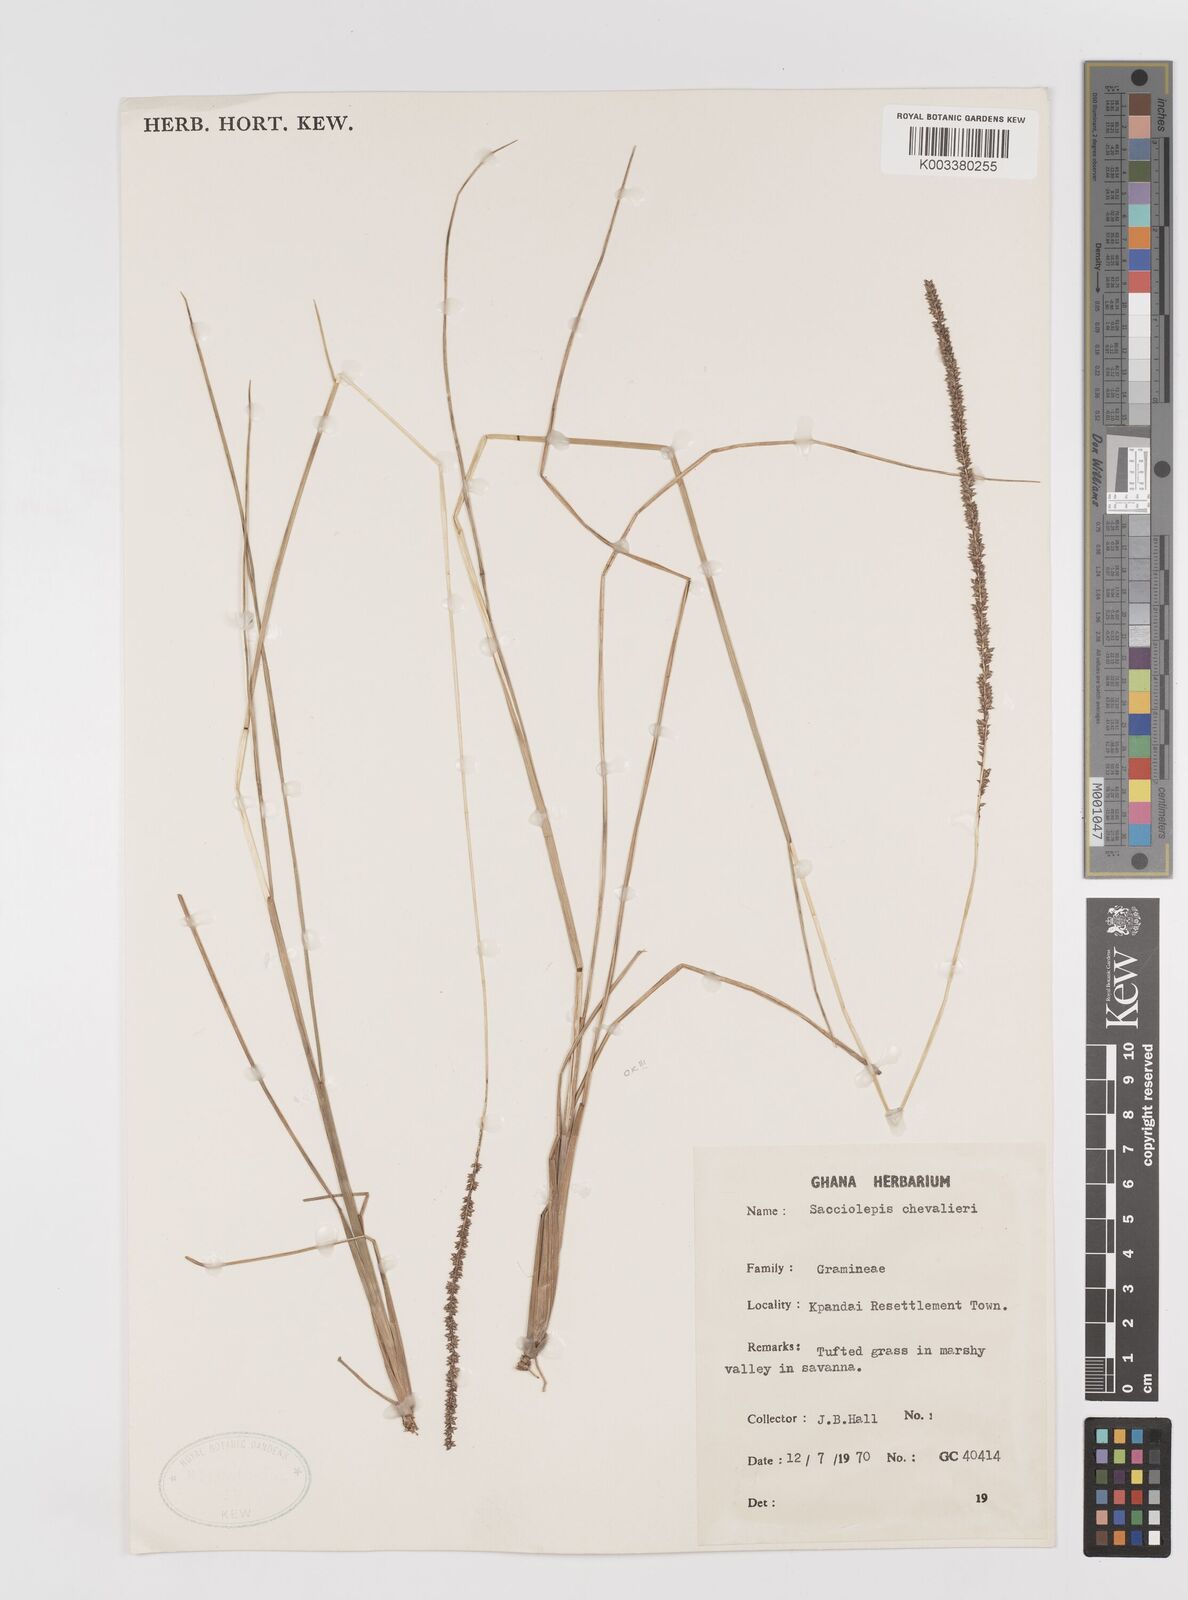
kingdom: Plantae
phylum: Tracheophyta
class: Liliopsida
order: Poales
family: Poaceae
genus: Sacciolepis
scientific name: Sacciolepis chevalieri
